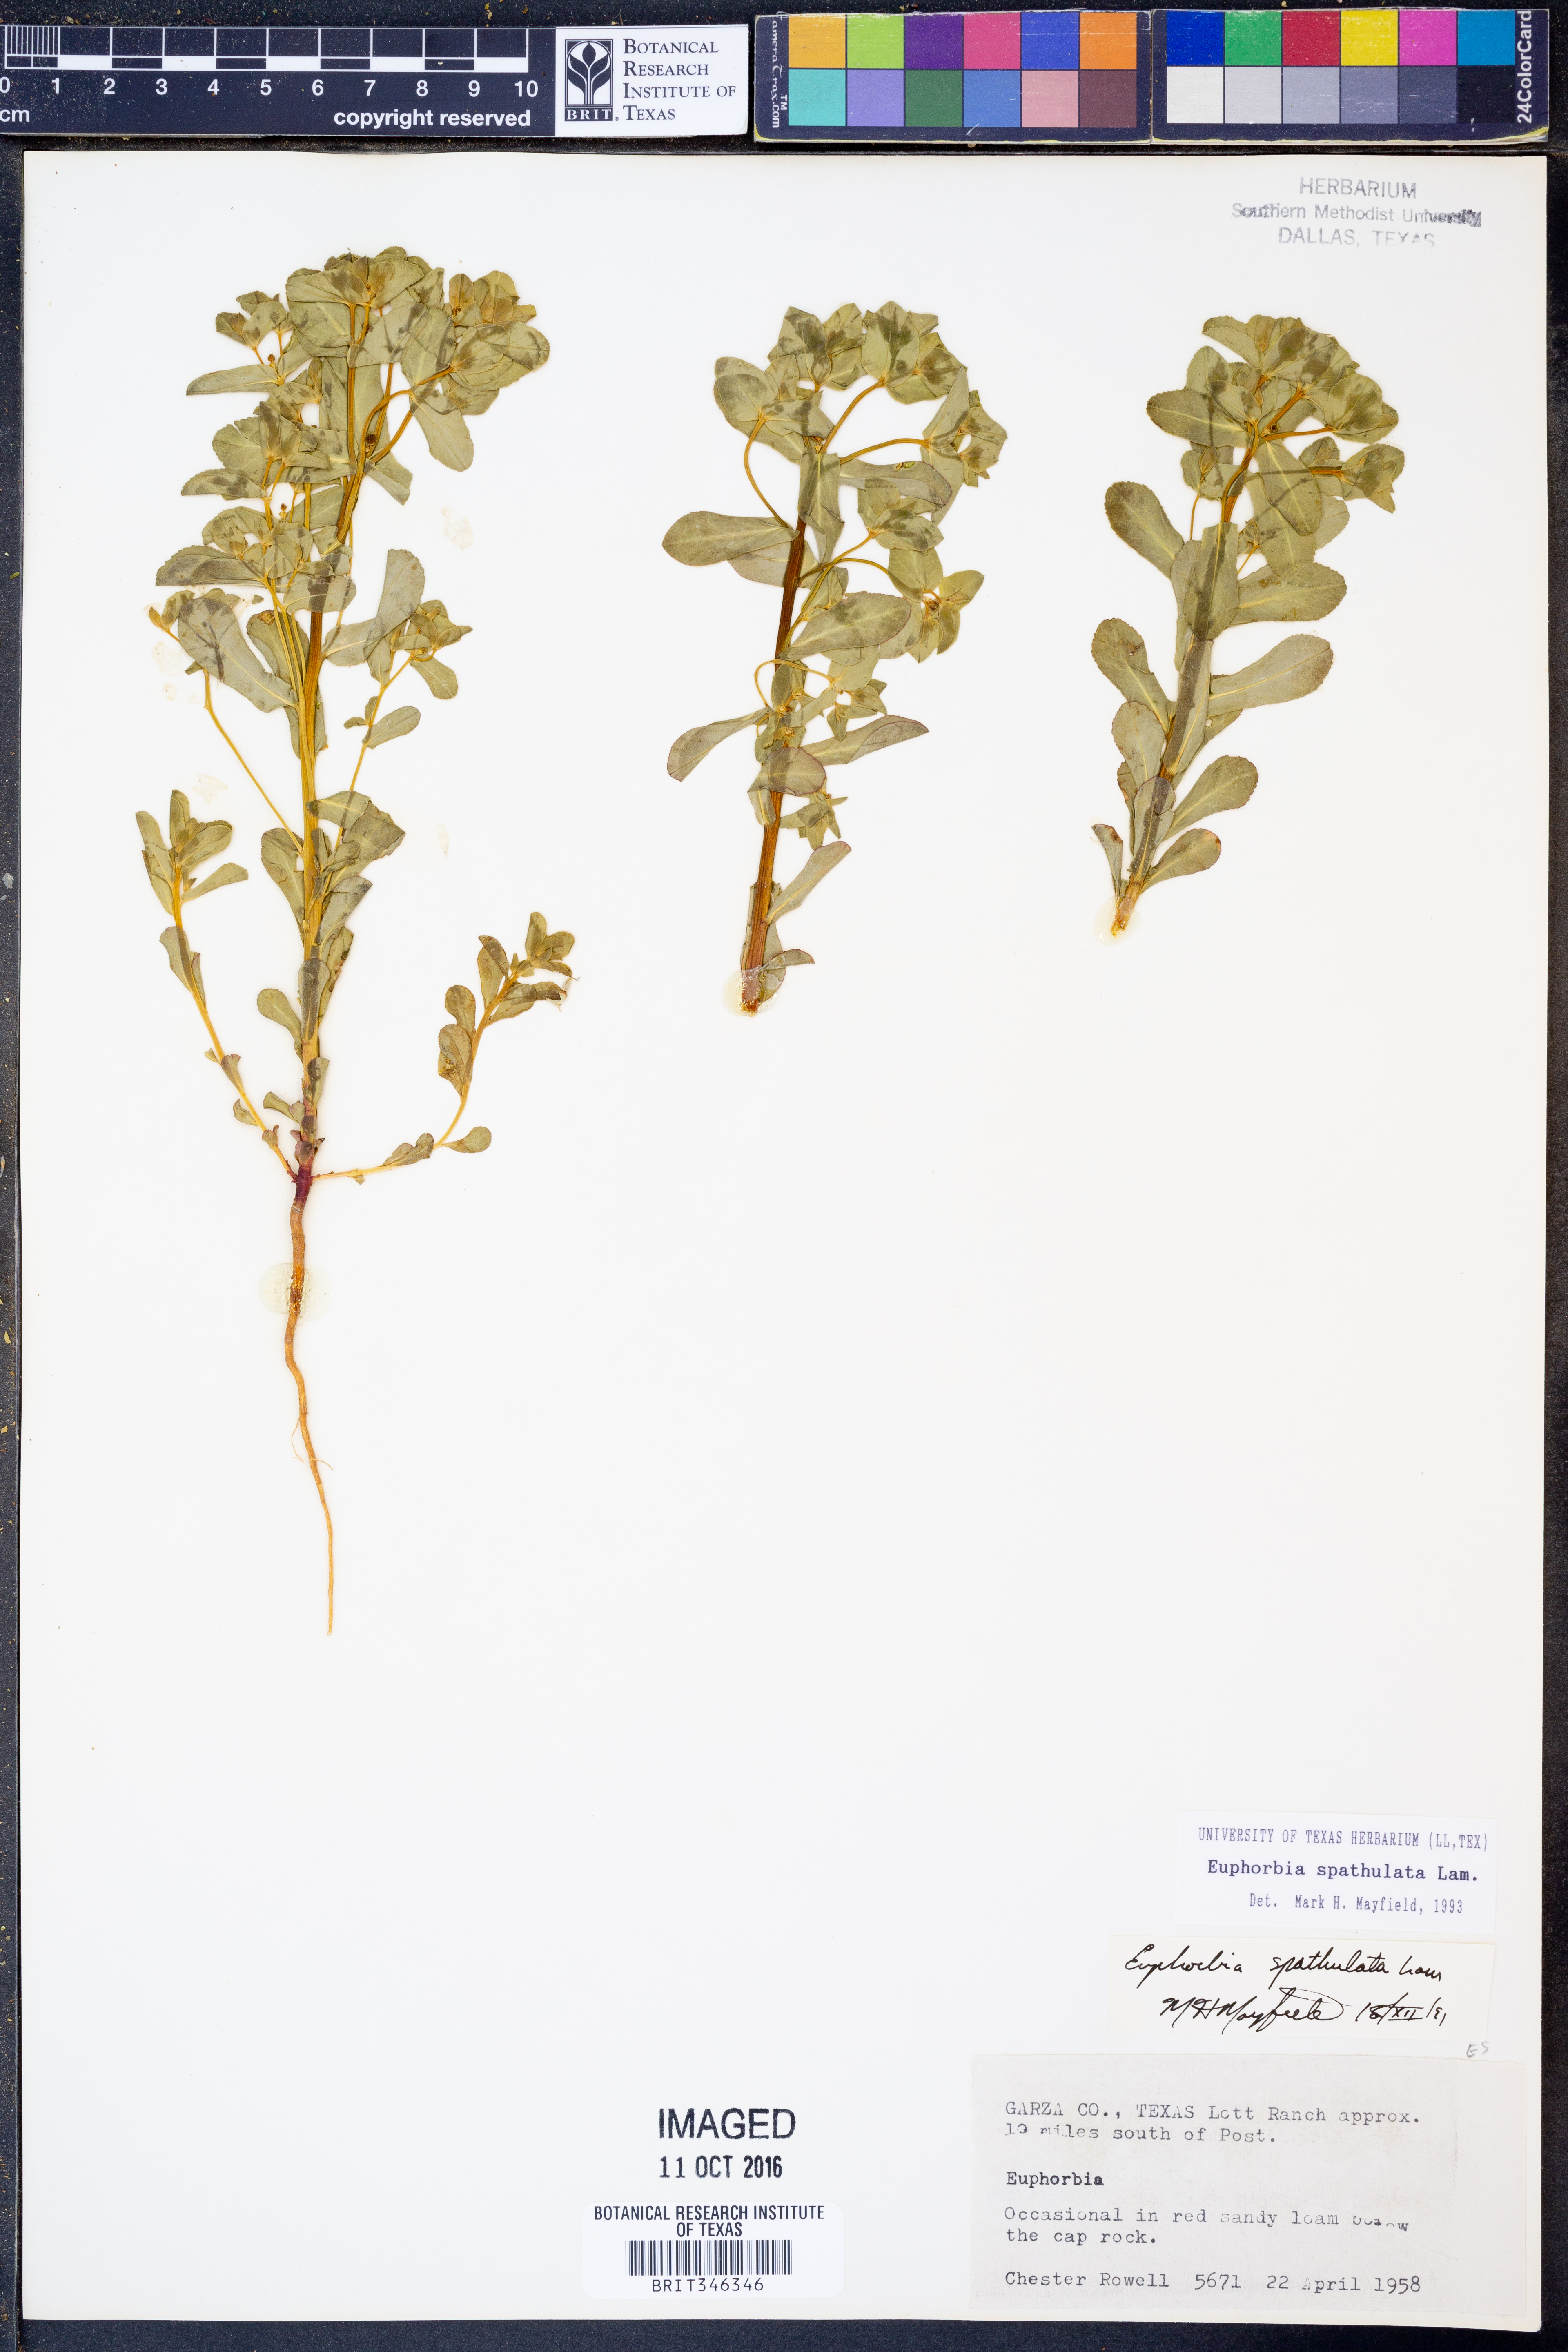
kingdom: Plantae
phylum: Tracheophyta
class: Magnoliopsida
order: Malpighiales
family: Euphorbiaceae
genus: Euphorbia
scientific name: Euphorbia spathulata
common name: Blunt spurge
